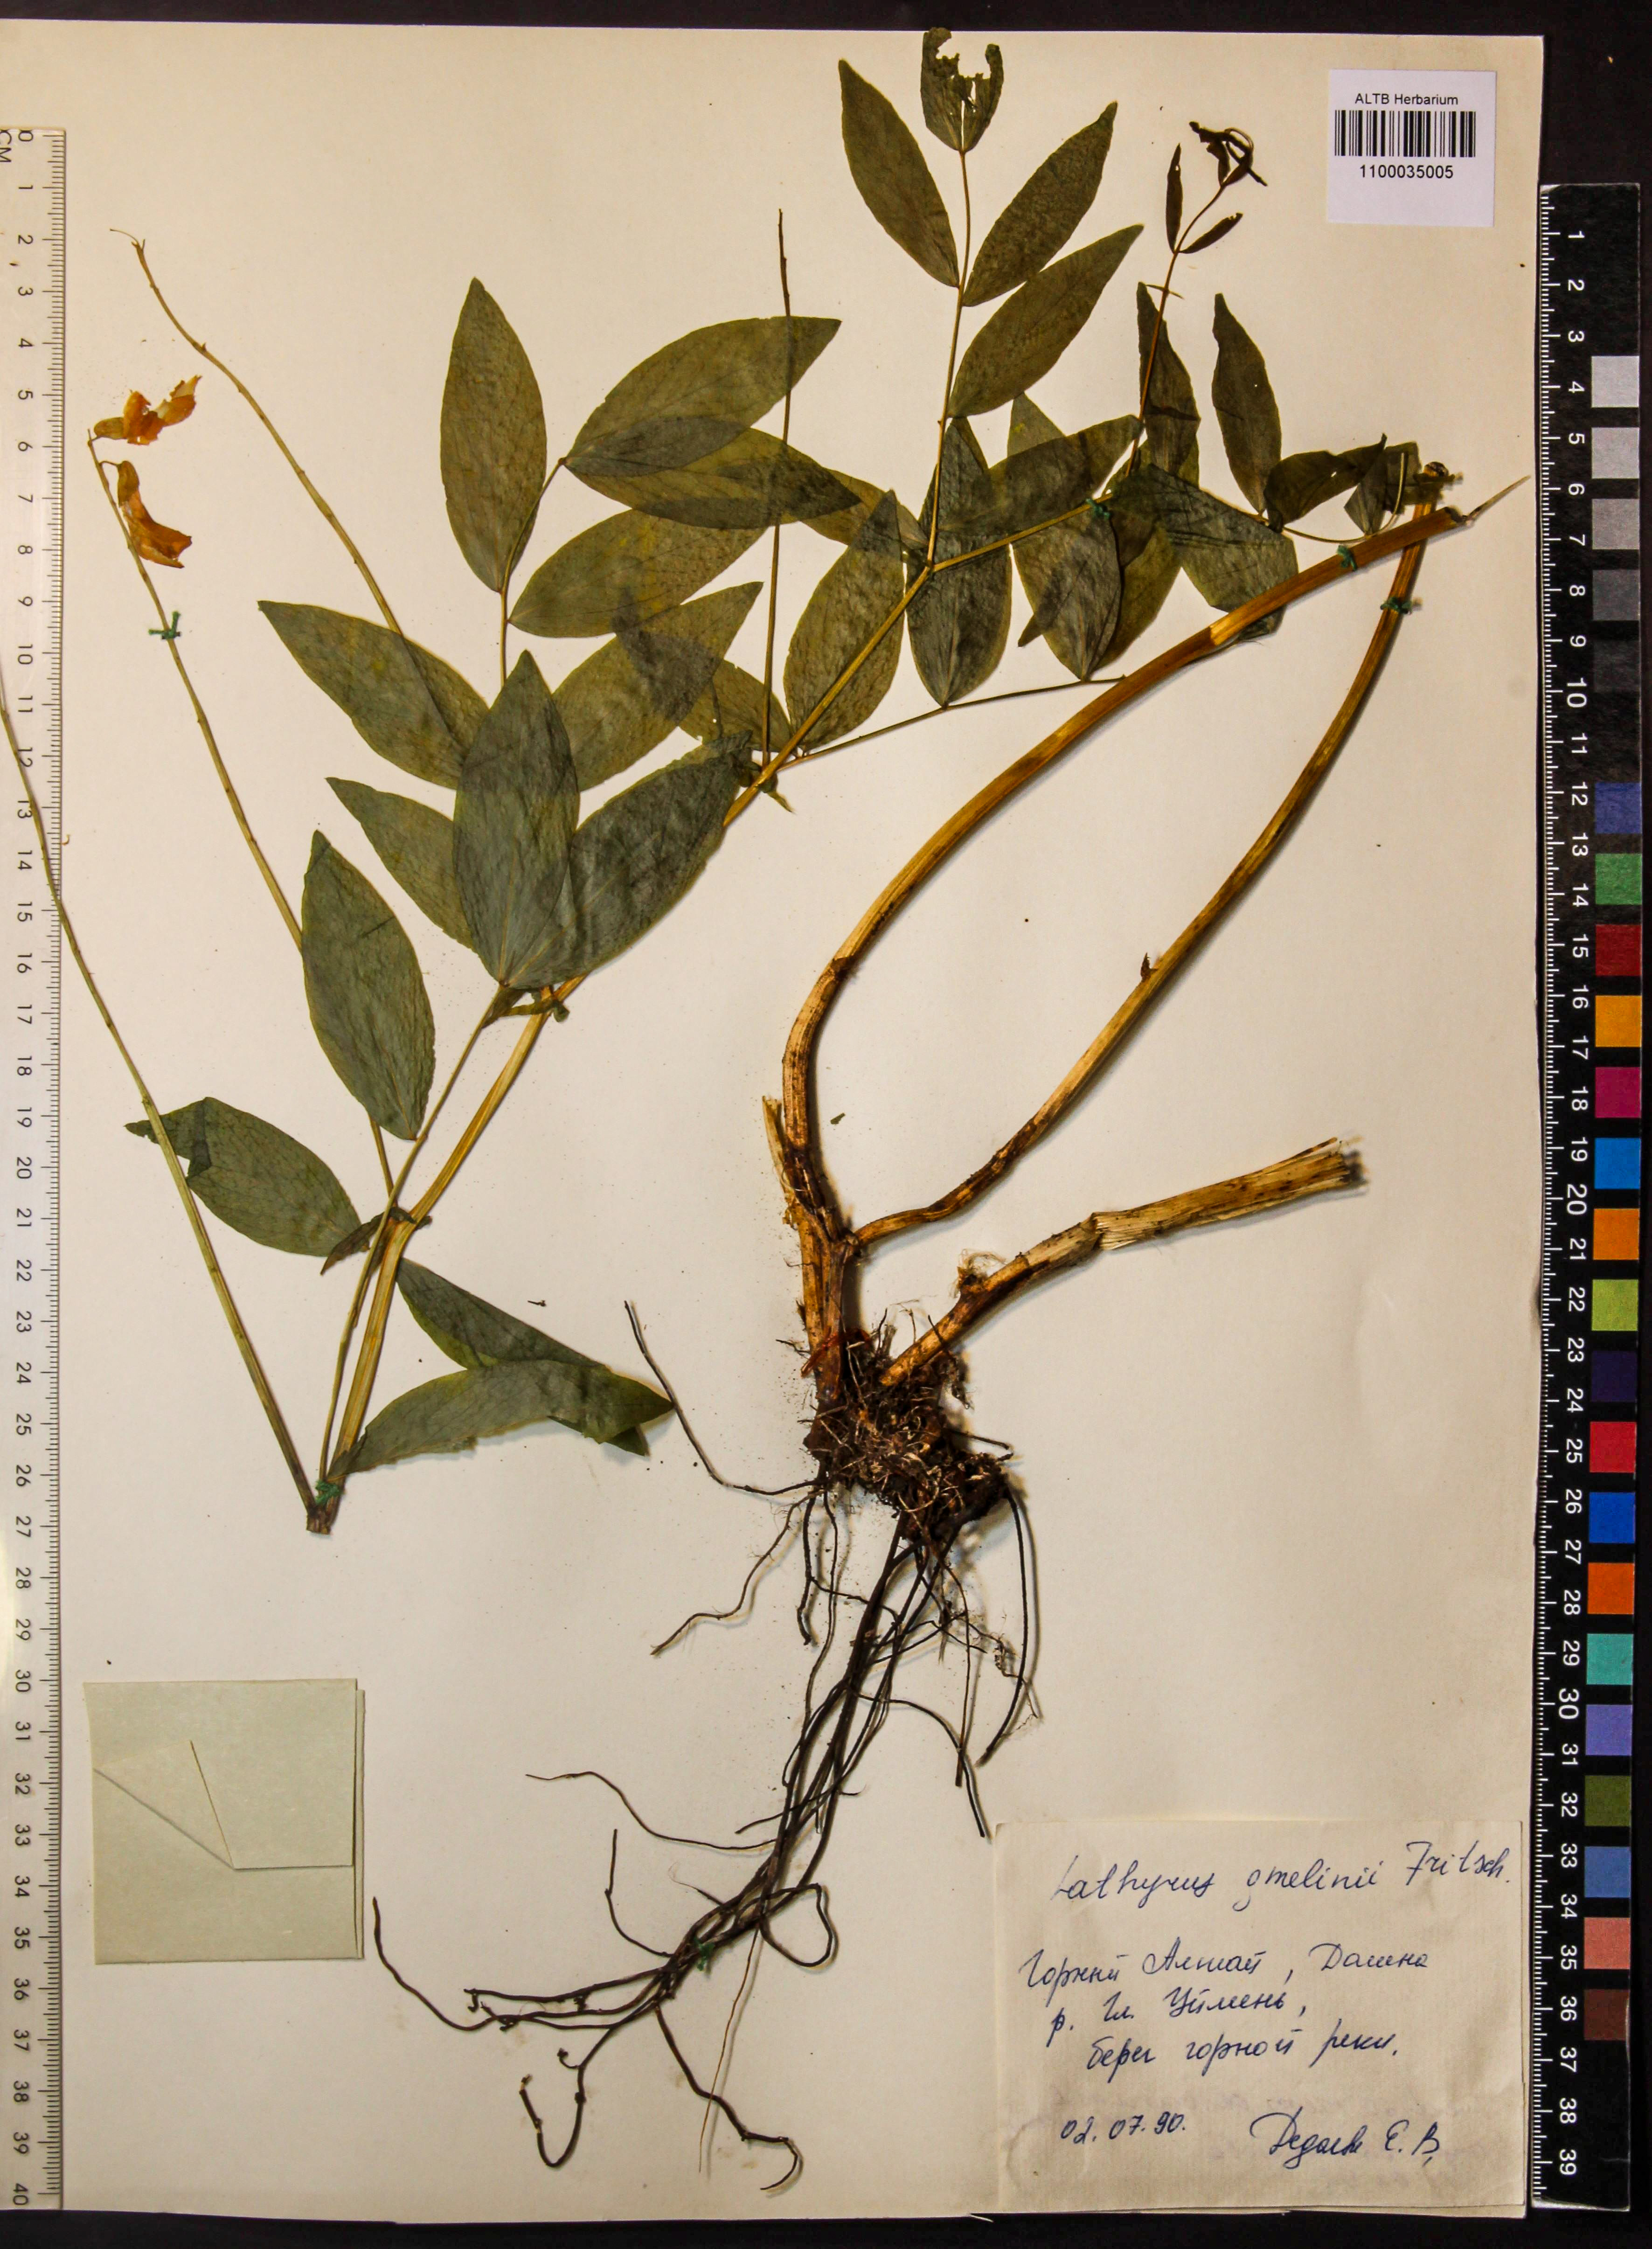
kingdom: Plantae
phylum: Tracheophyta
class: Magnoliopsida
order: Fabales
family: Fabaceae
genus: Lathyrus
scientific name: Lathyrus gmelinii
